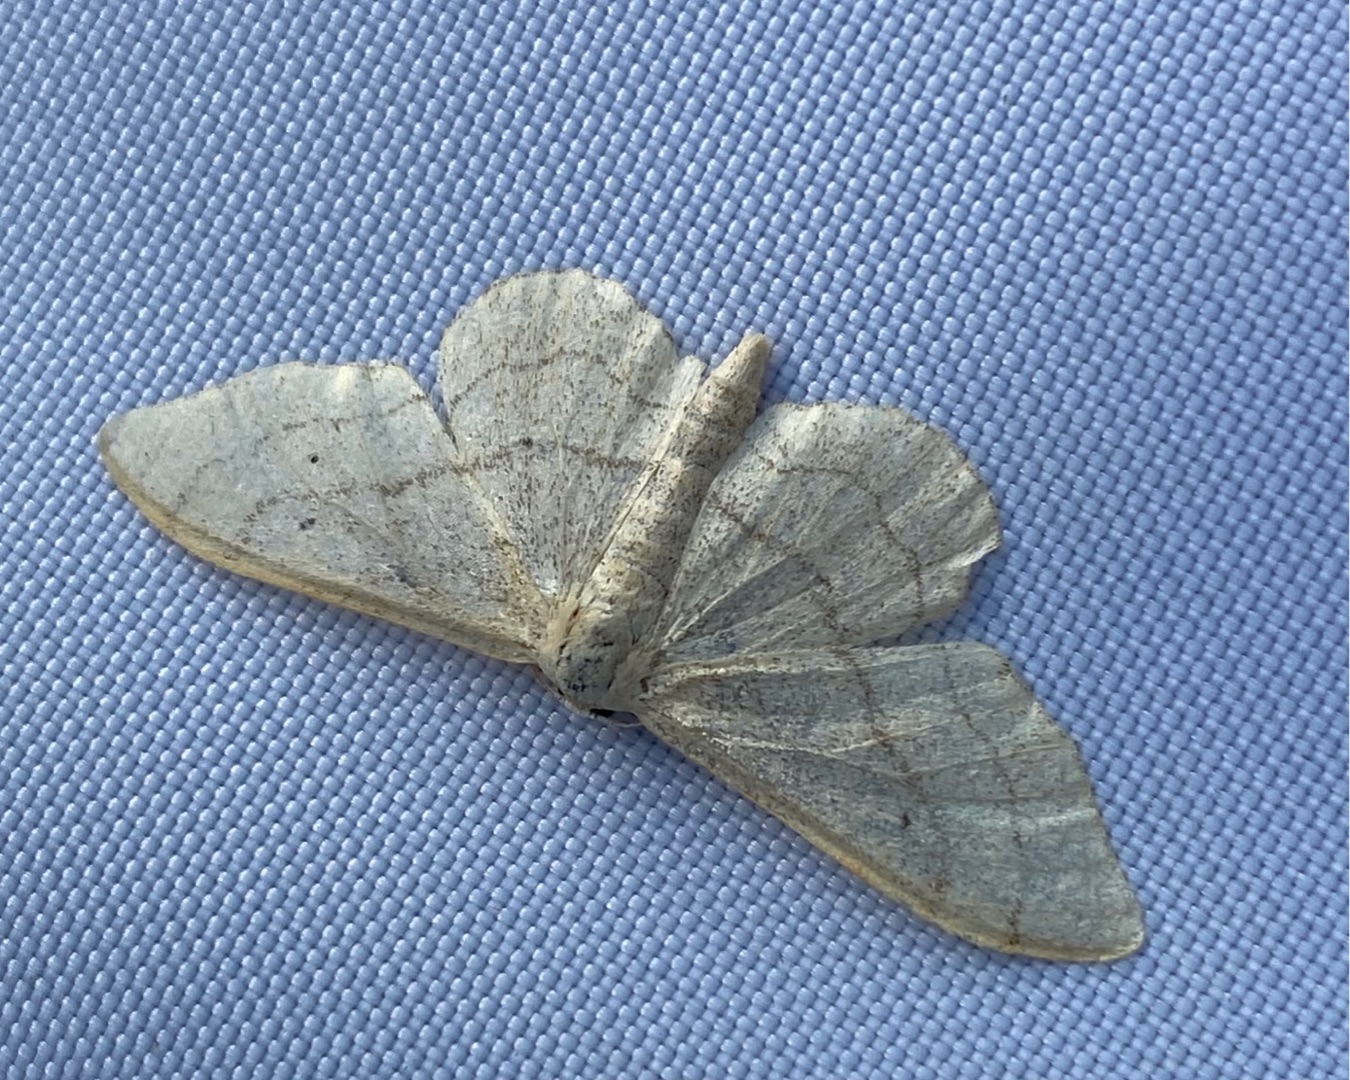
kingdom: Animalia
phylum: Arthropoda
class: Insecta
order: Lepidoptera
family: Geometridae
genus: Idaea
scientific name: Idaea aversata
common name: Vinkelstreget løvmåler
